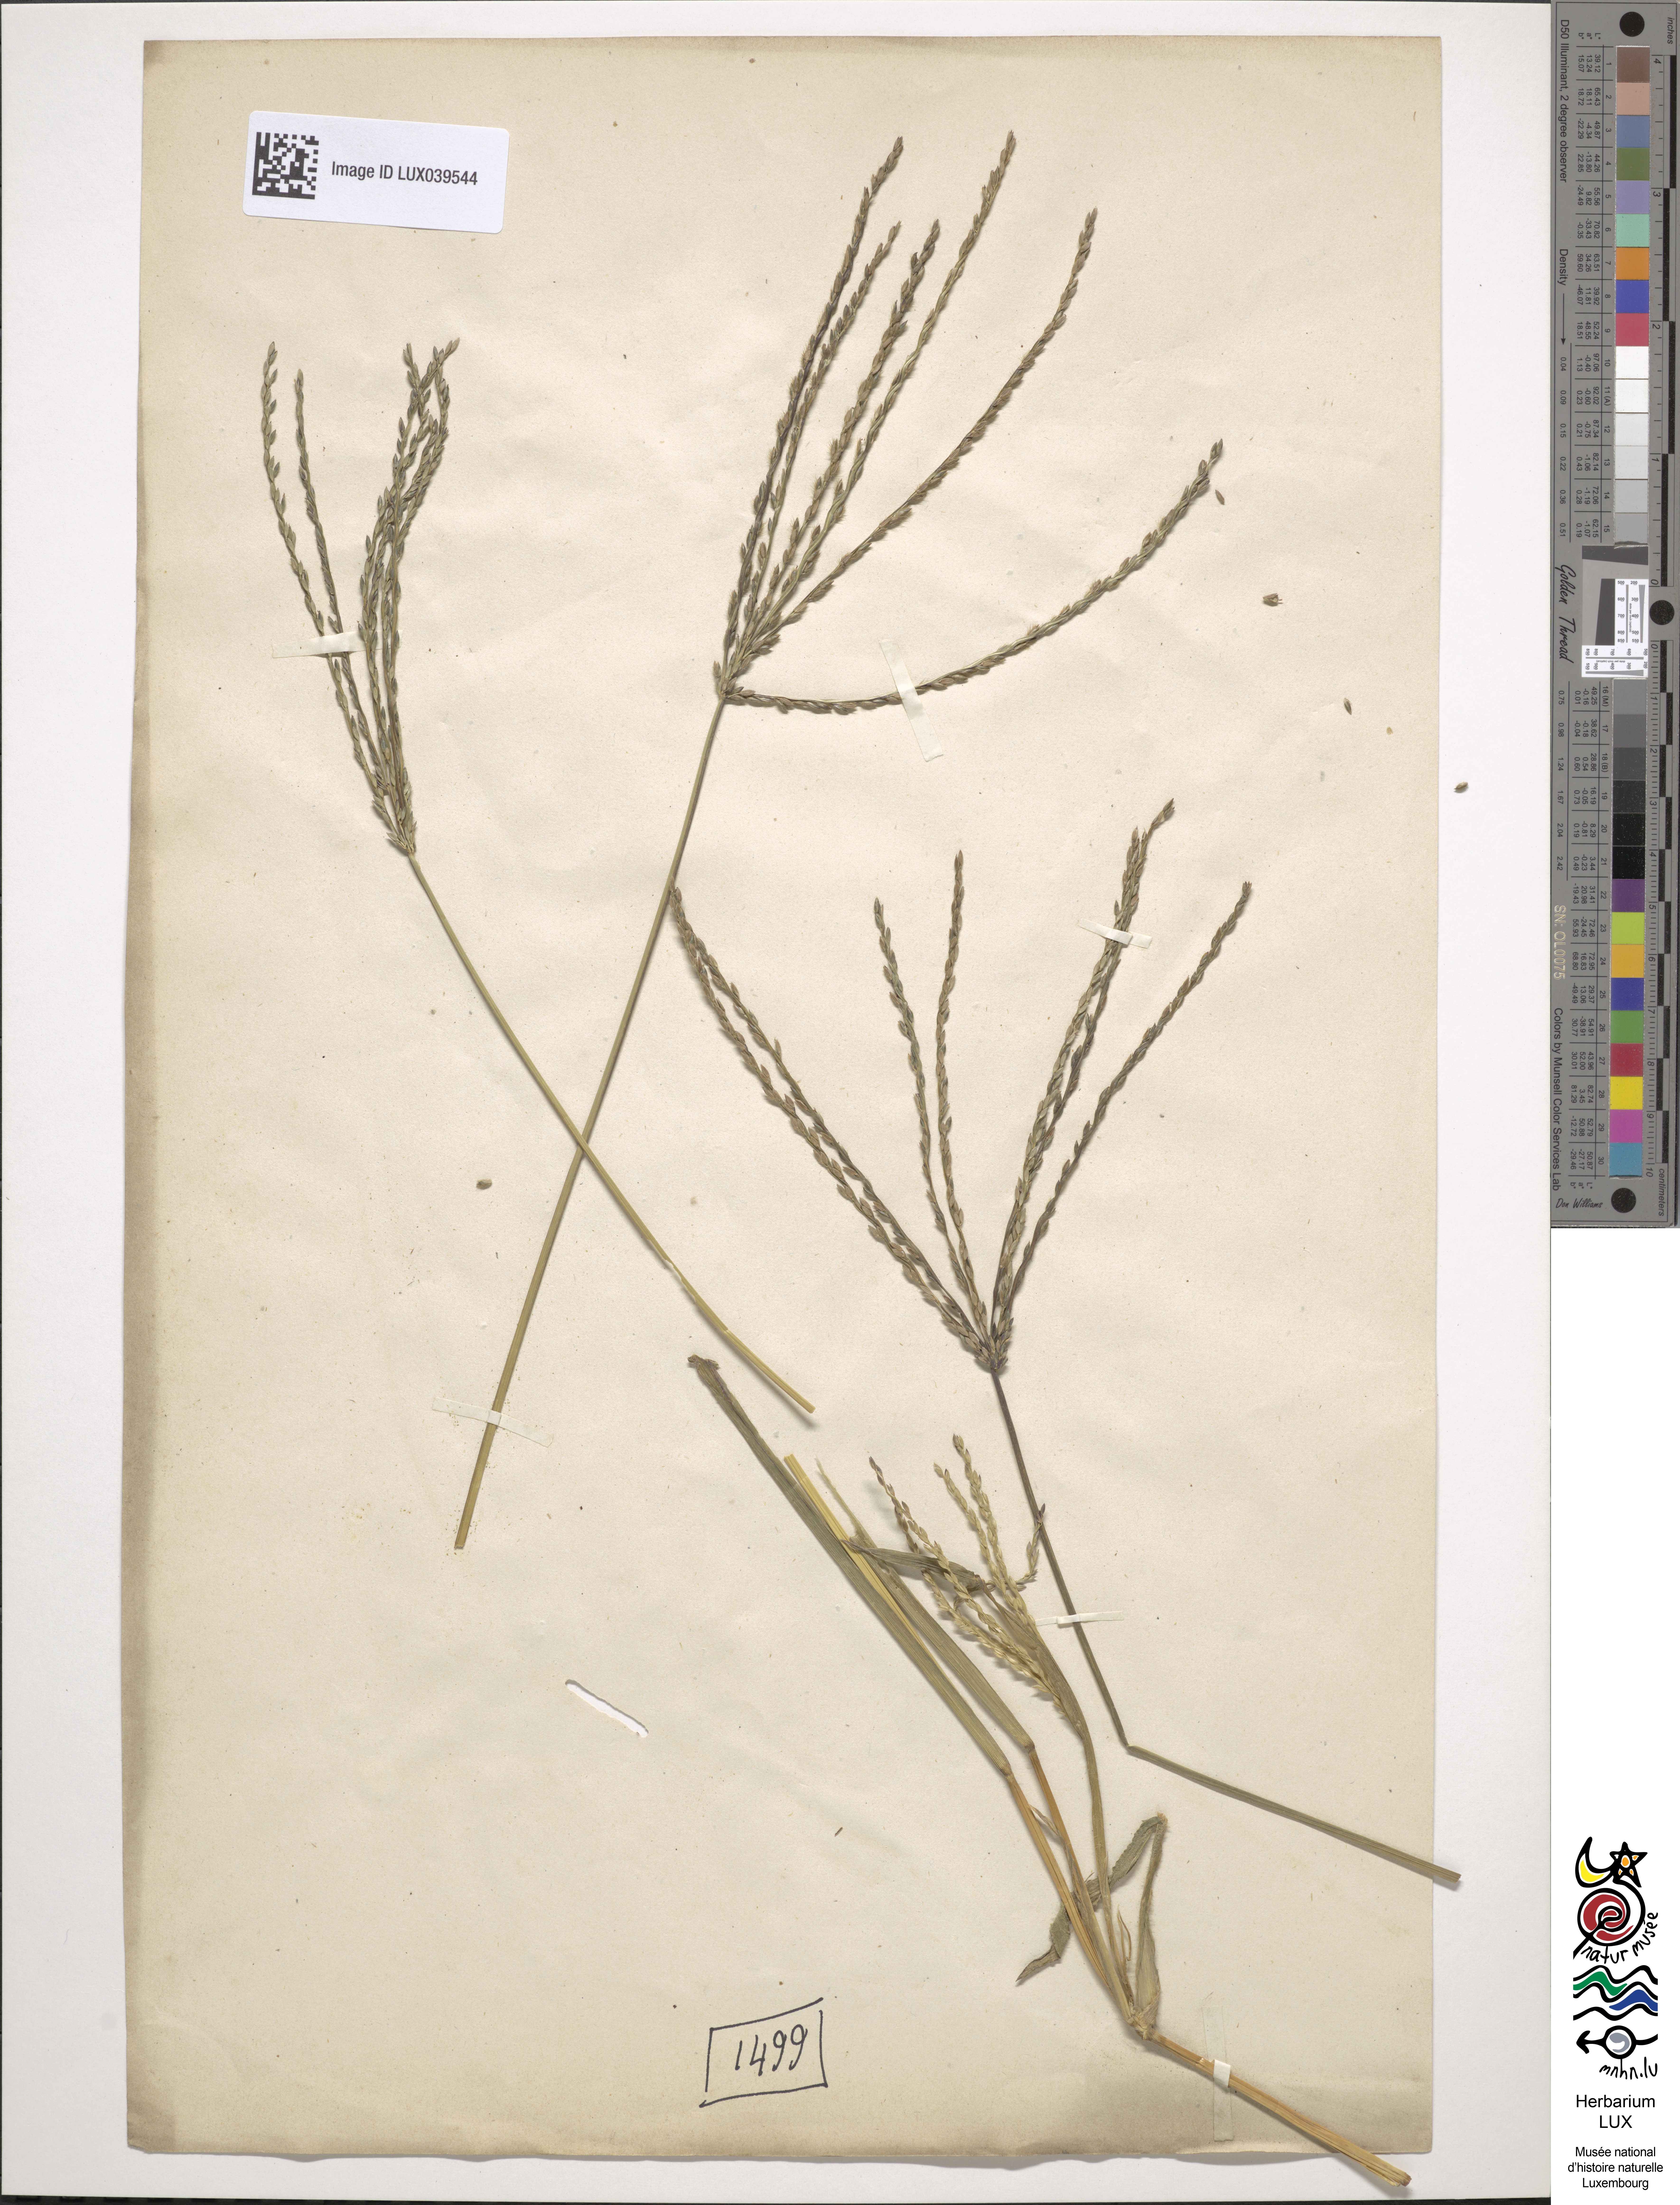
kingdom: Plantae
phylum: Tracheophyta
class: Liliopsida
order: Poales
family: Poaceae
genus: Tricholaena
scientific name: Tricholaena teneriffae
